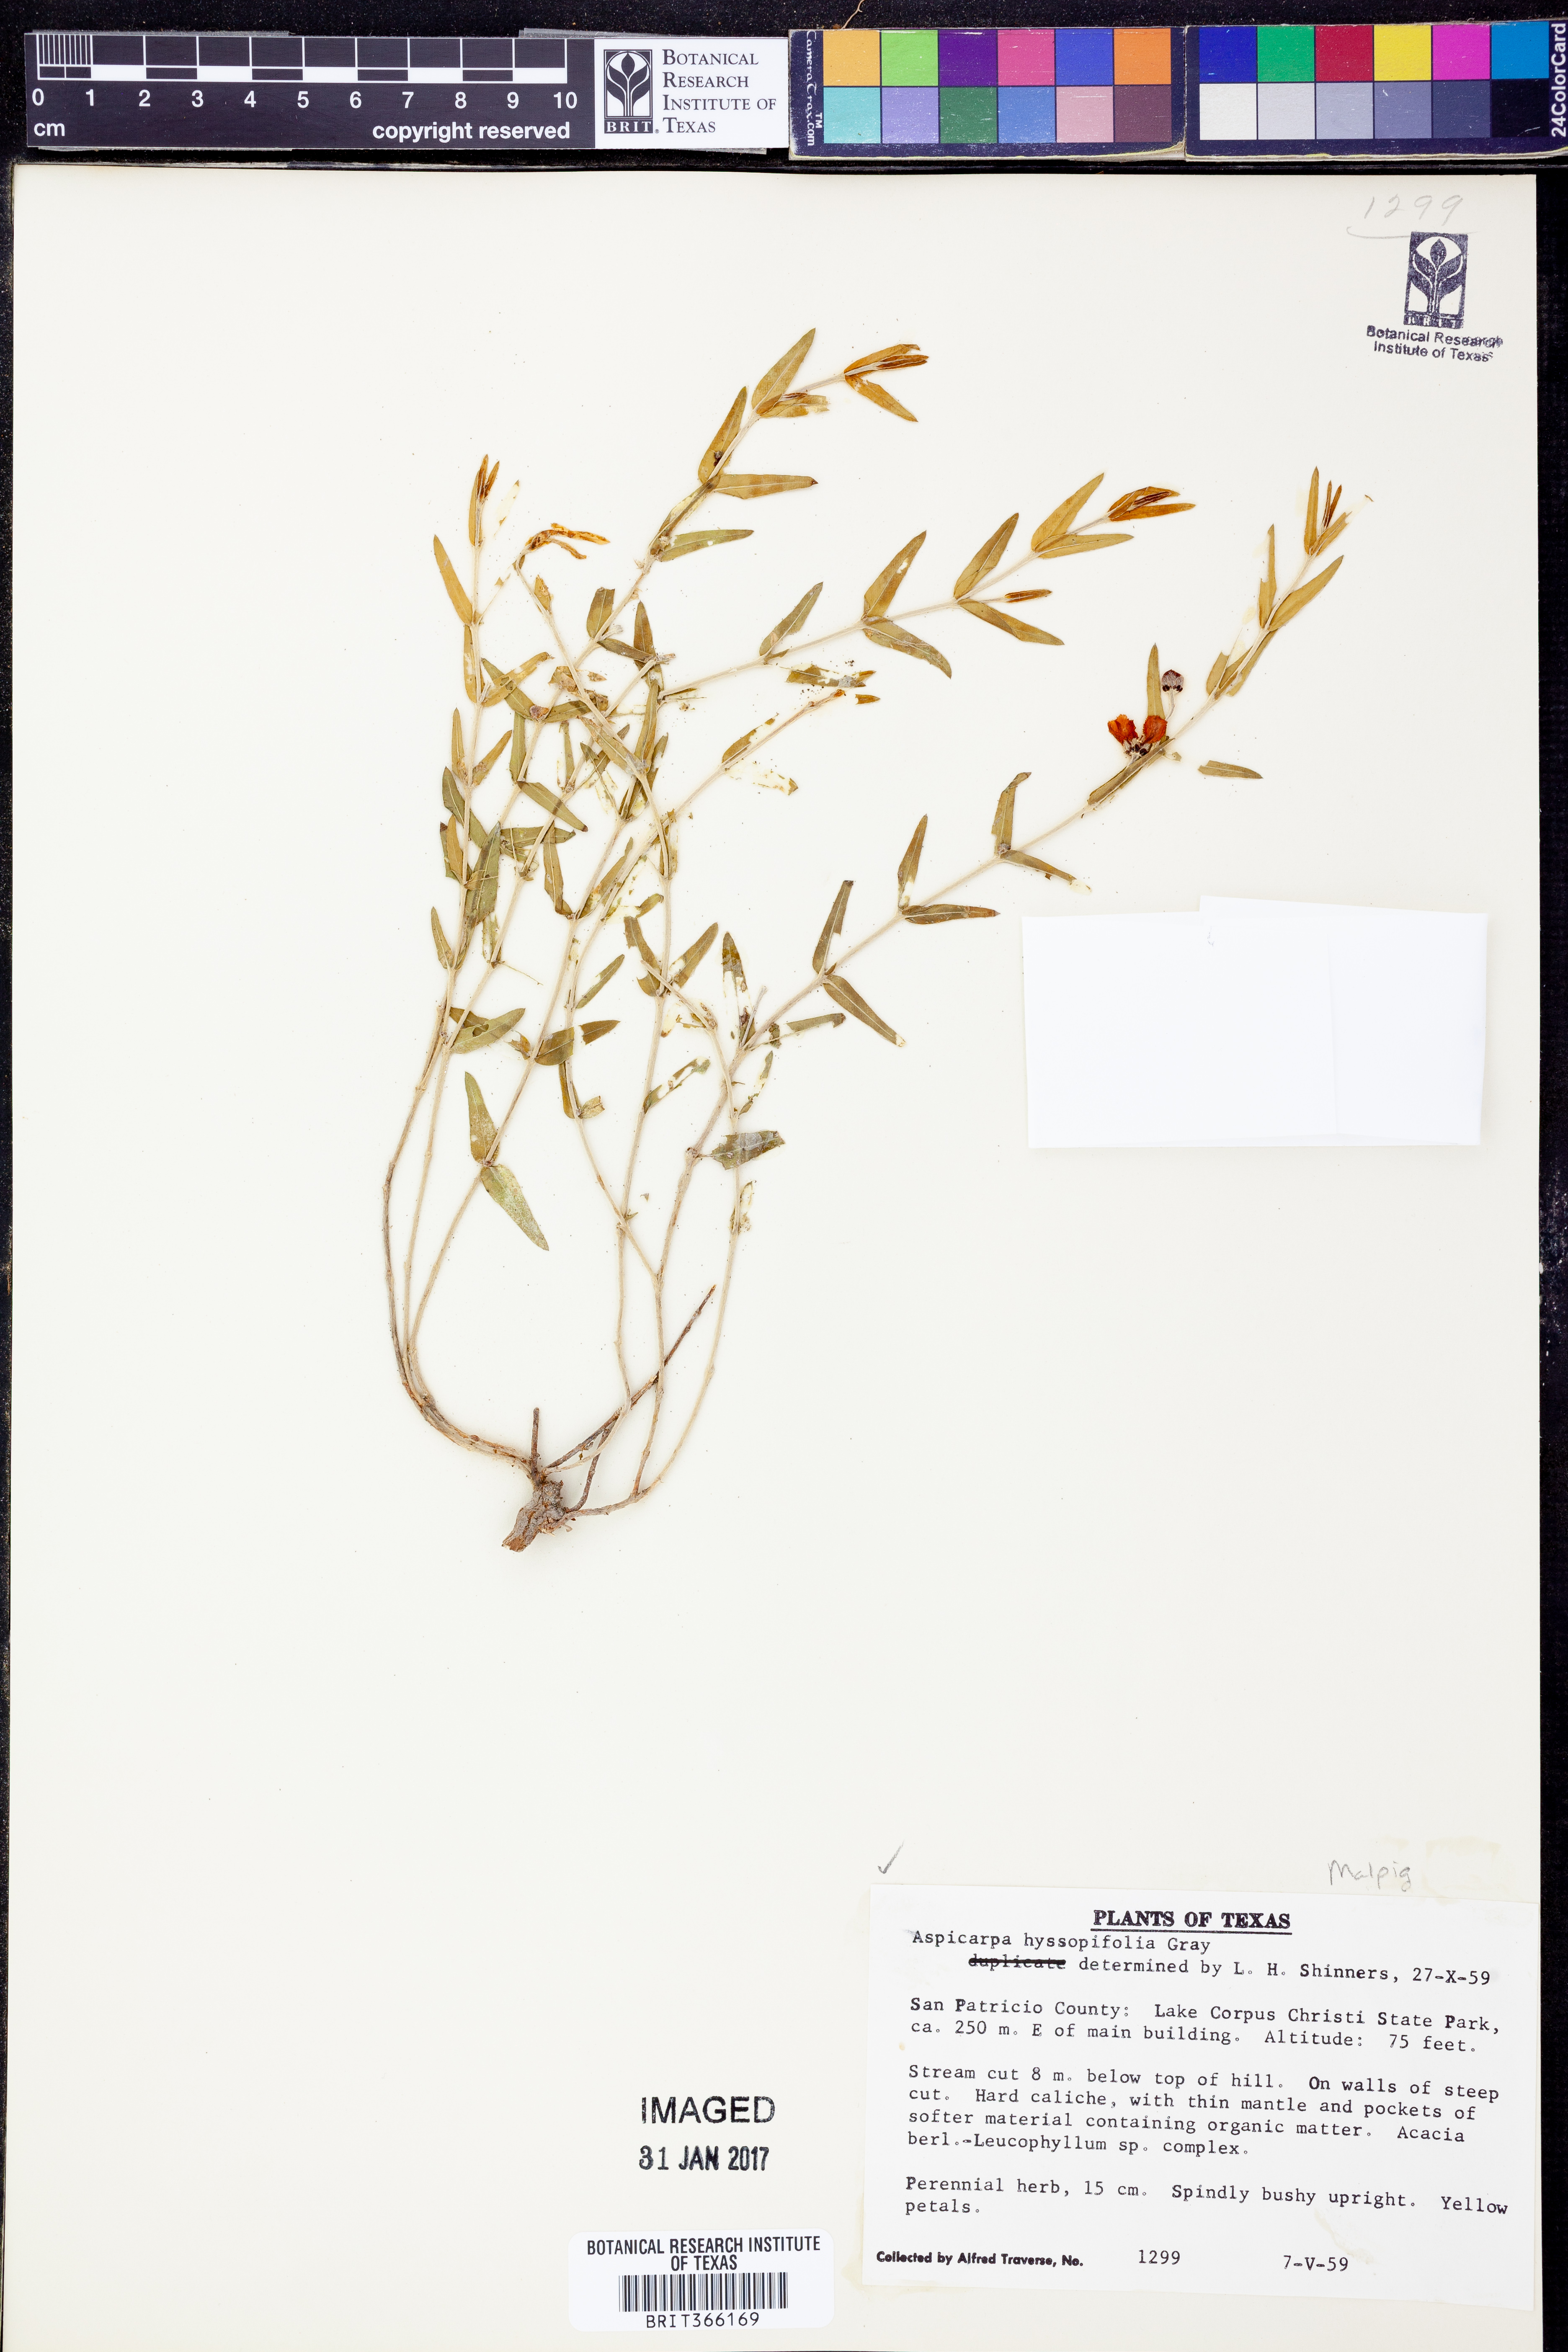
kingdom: Plantae
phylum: Tracheophyta
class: Magnoliopsida
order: Malpighiales
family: Malpighiaceae
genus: Aspicarpa
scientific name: Aspicarpa hyssopifolia
